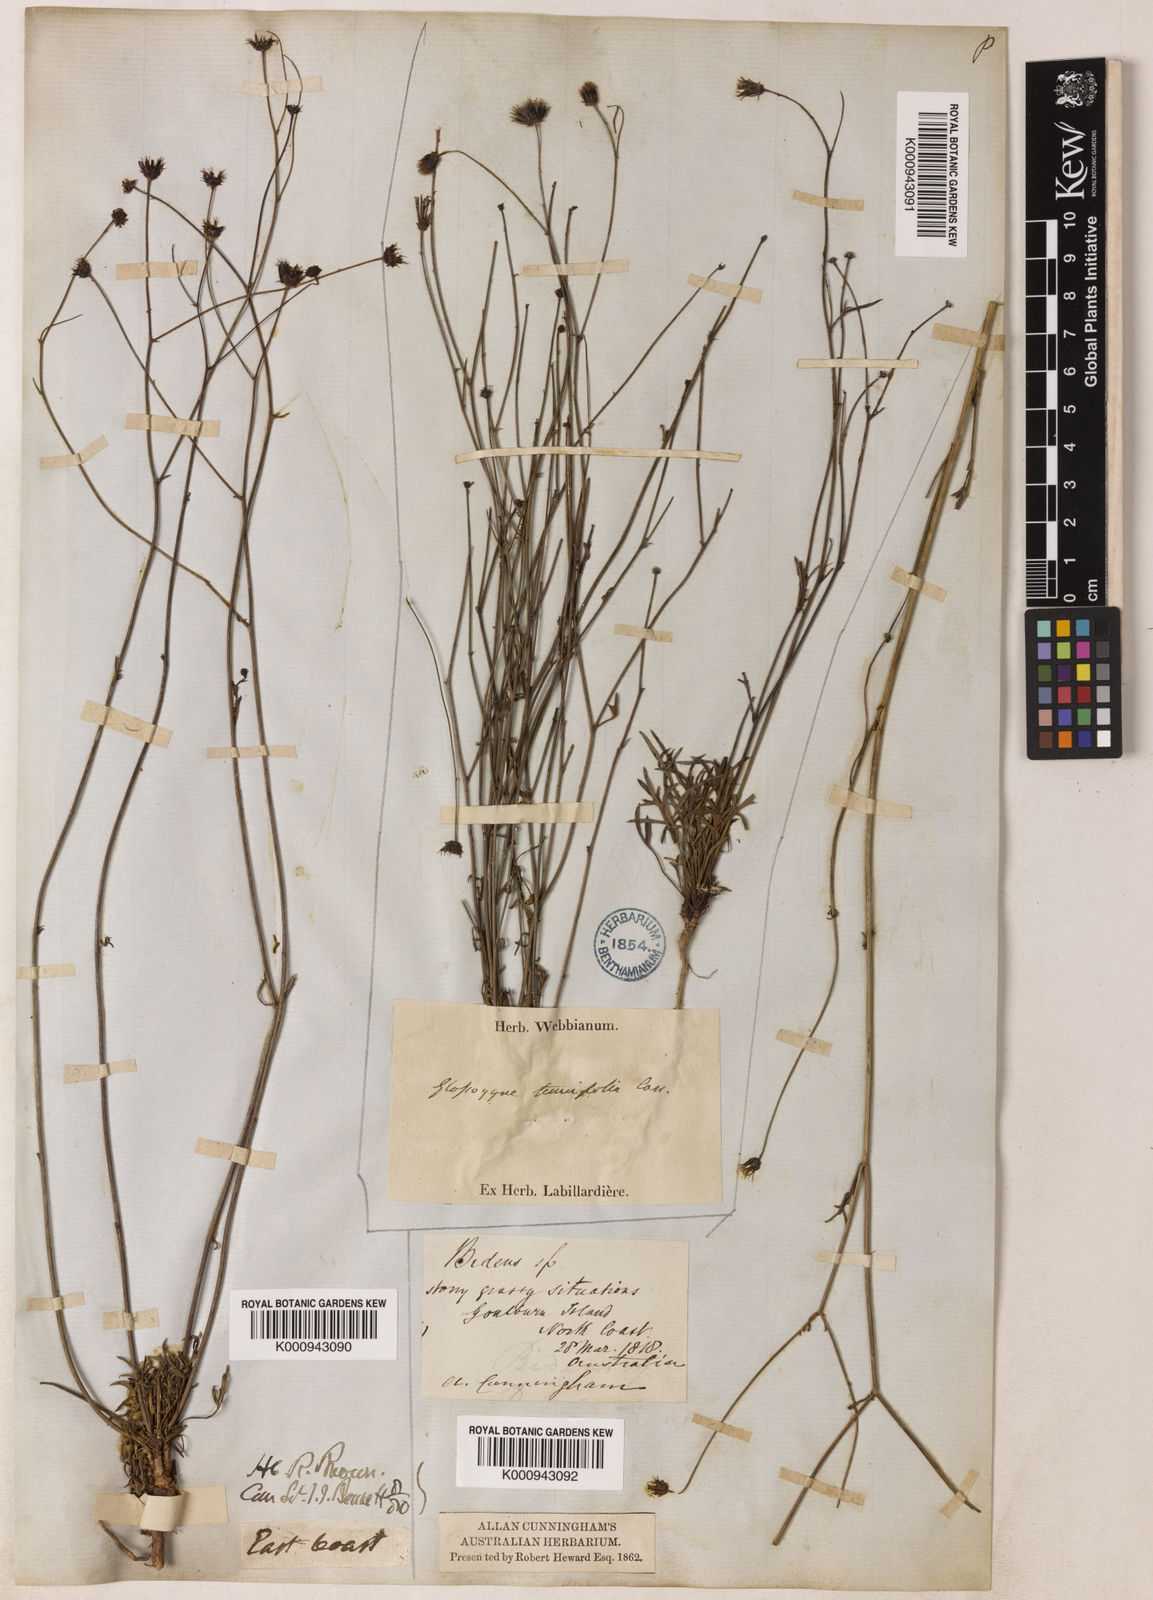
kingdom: Plantae
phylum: Tracheophyta
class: Magnoliopsida
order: Asterales
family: Asteraceae
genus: Glossocardia
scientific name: Glossocardia bidens
